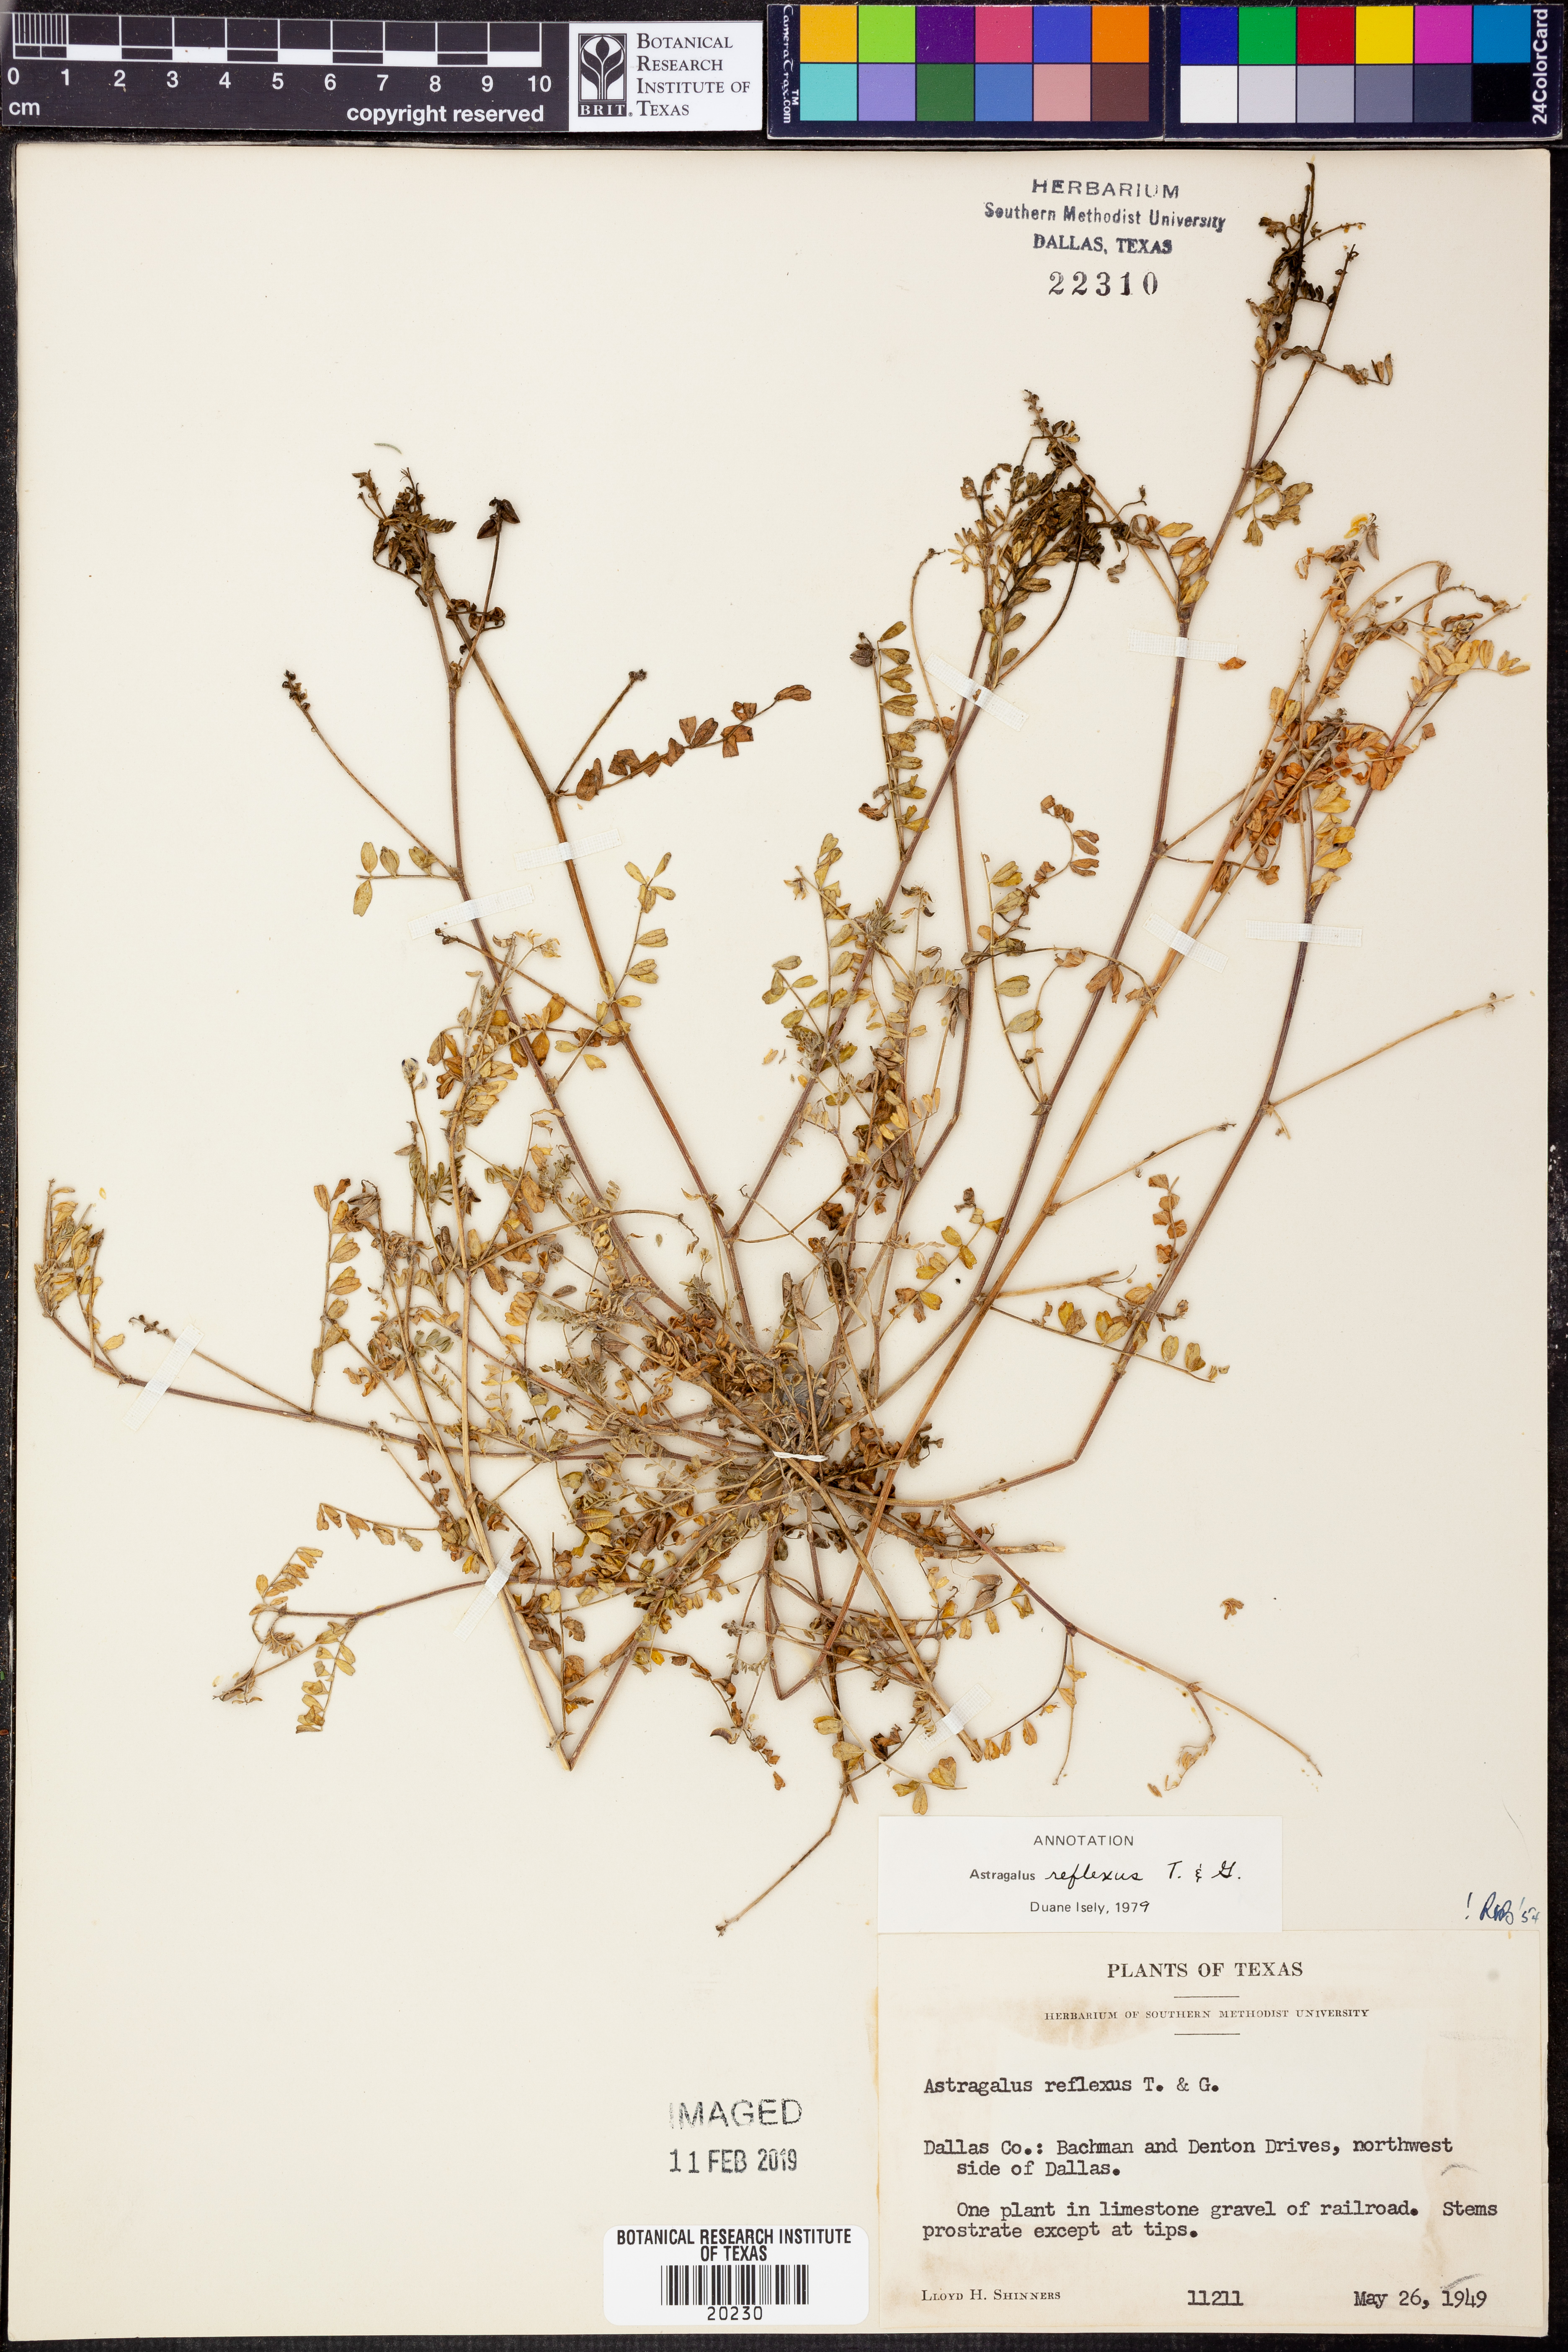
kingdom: Plantae
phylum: Tracheophyta
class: Magnoliopsida
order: Fabales
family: Fabaceae
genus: Astragalus
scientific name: Astragalus reflexus
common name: Texas milk-vetch
